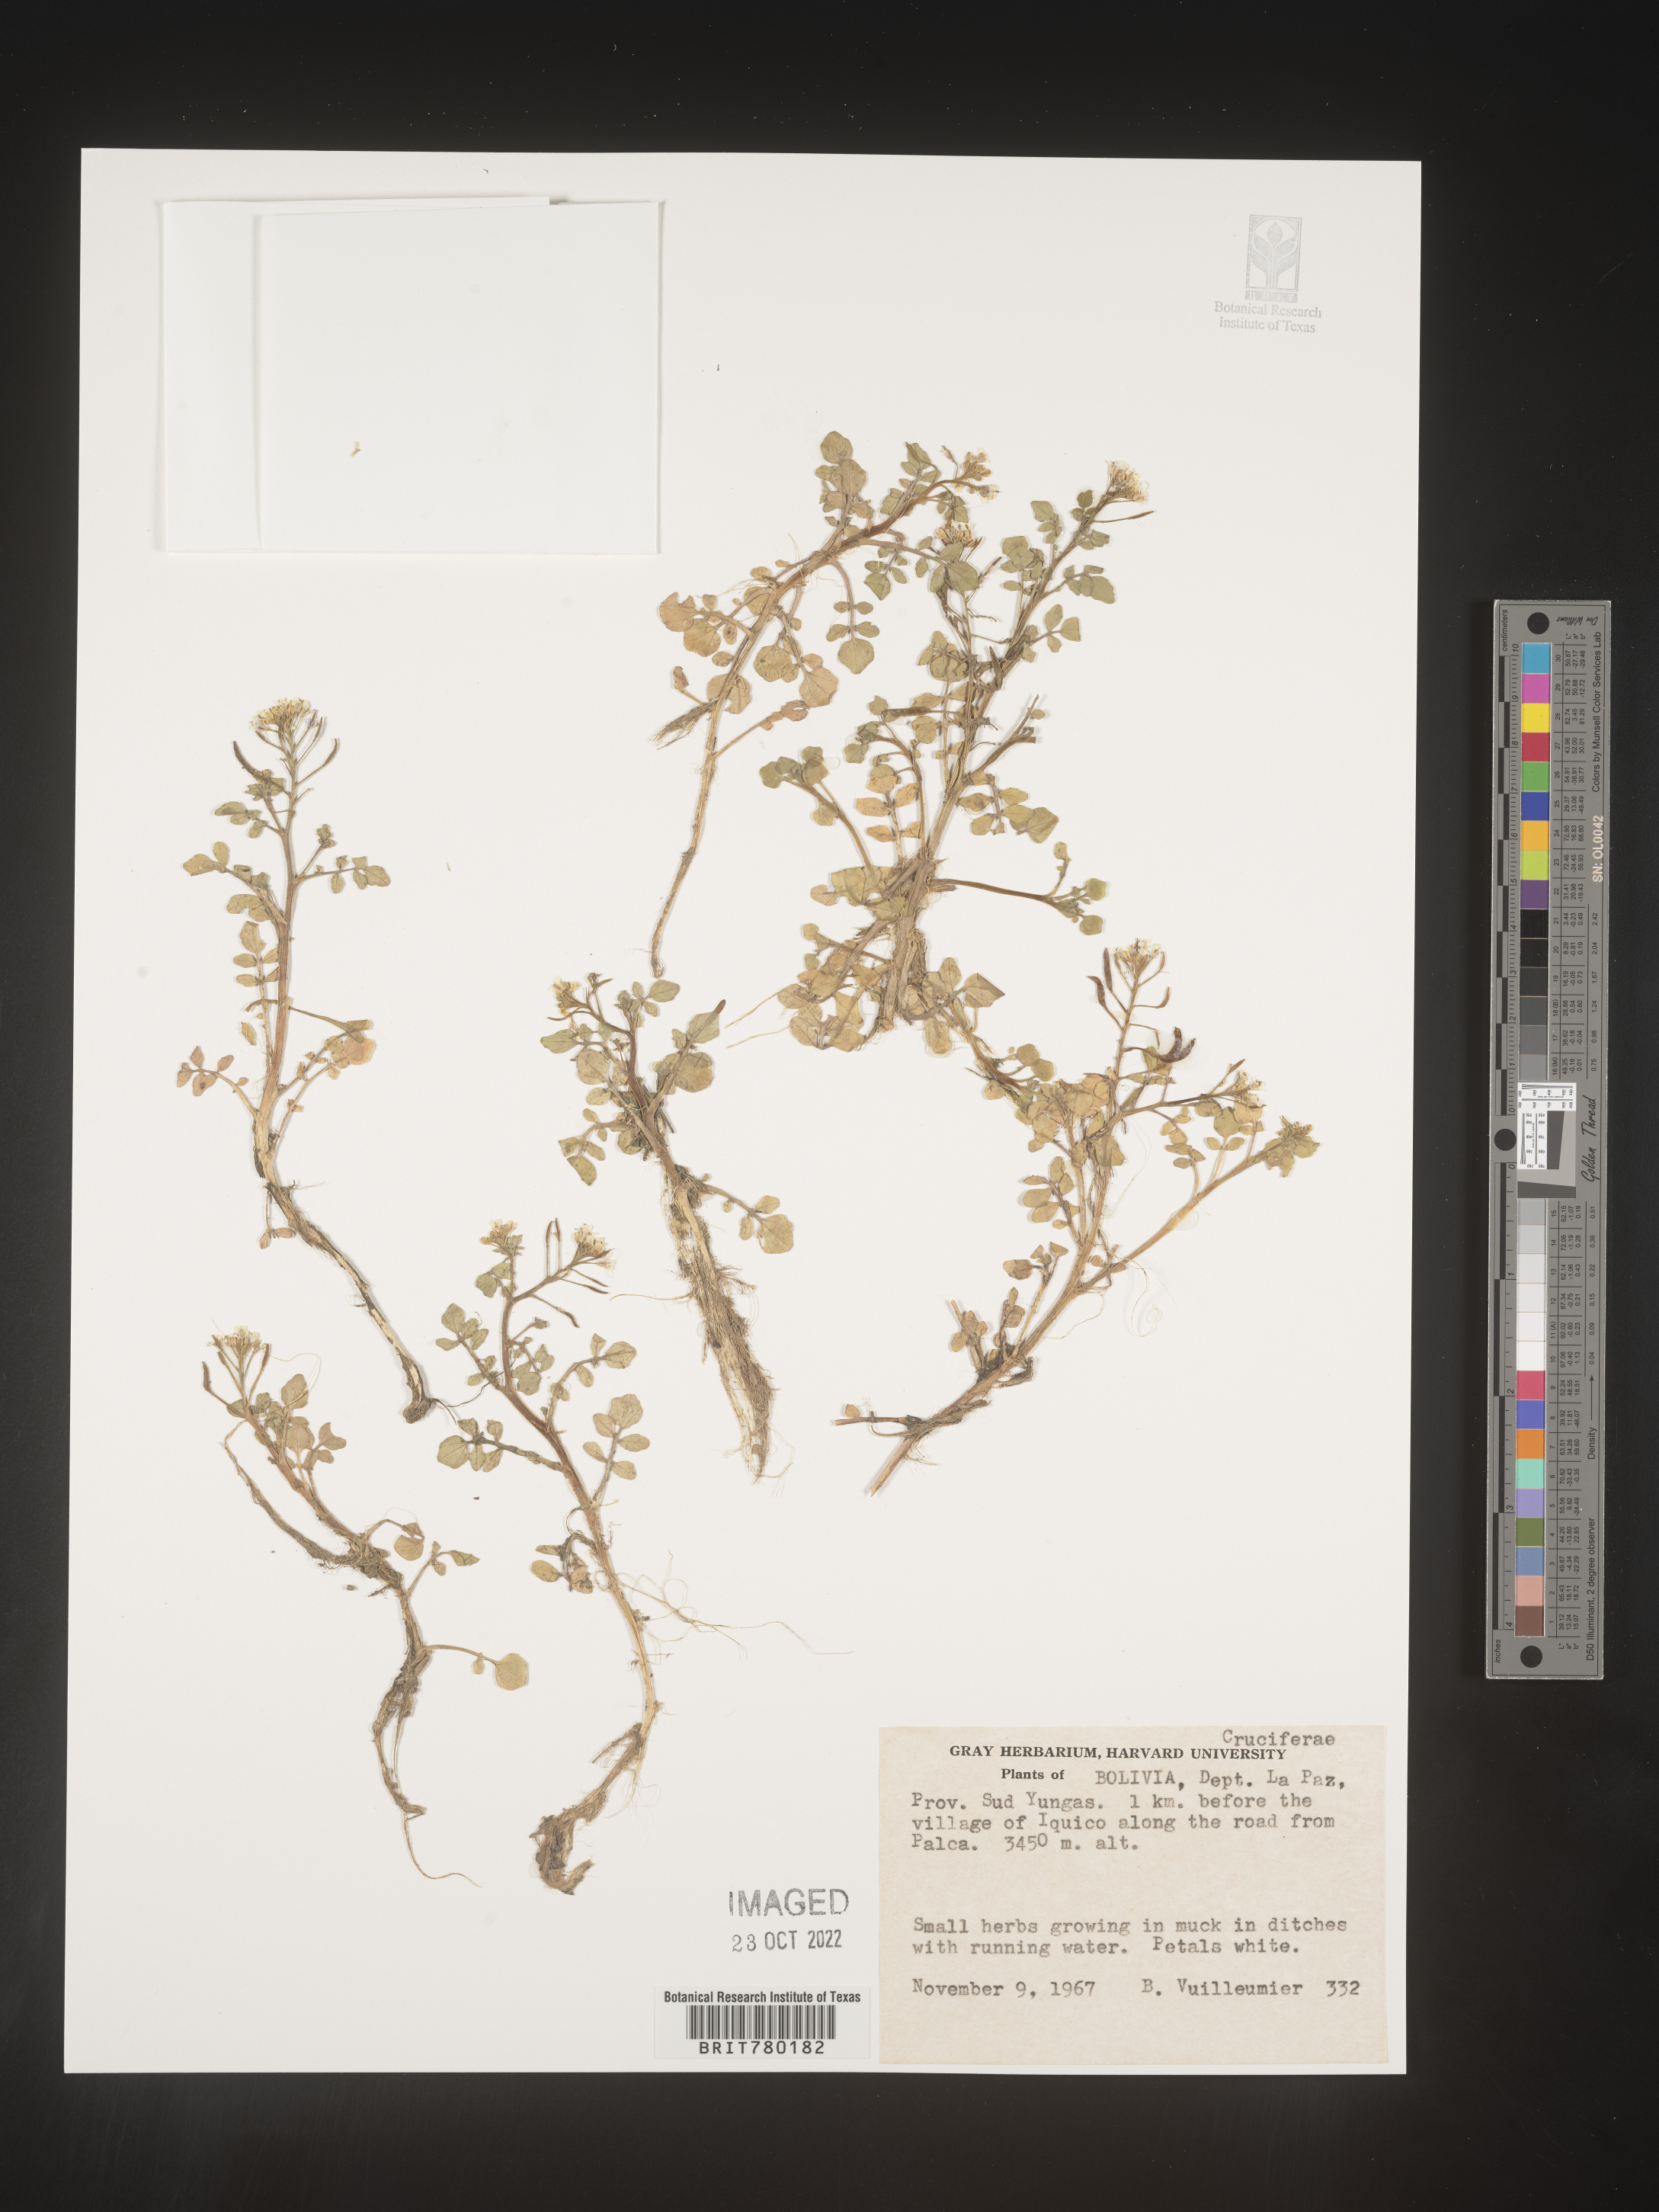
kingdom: Plantae
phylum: Tracheophyta
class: Magnoliopsida
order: Brassicales
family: Brassicaceae
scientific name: Brassicaceae
